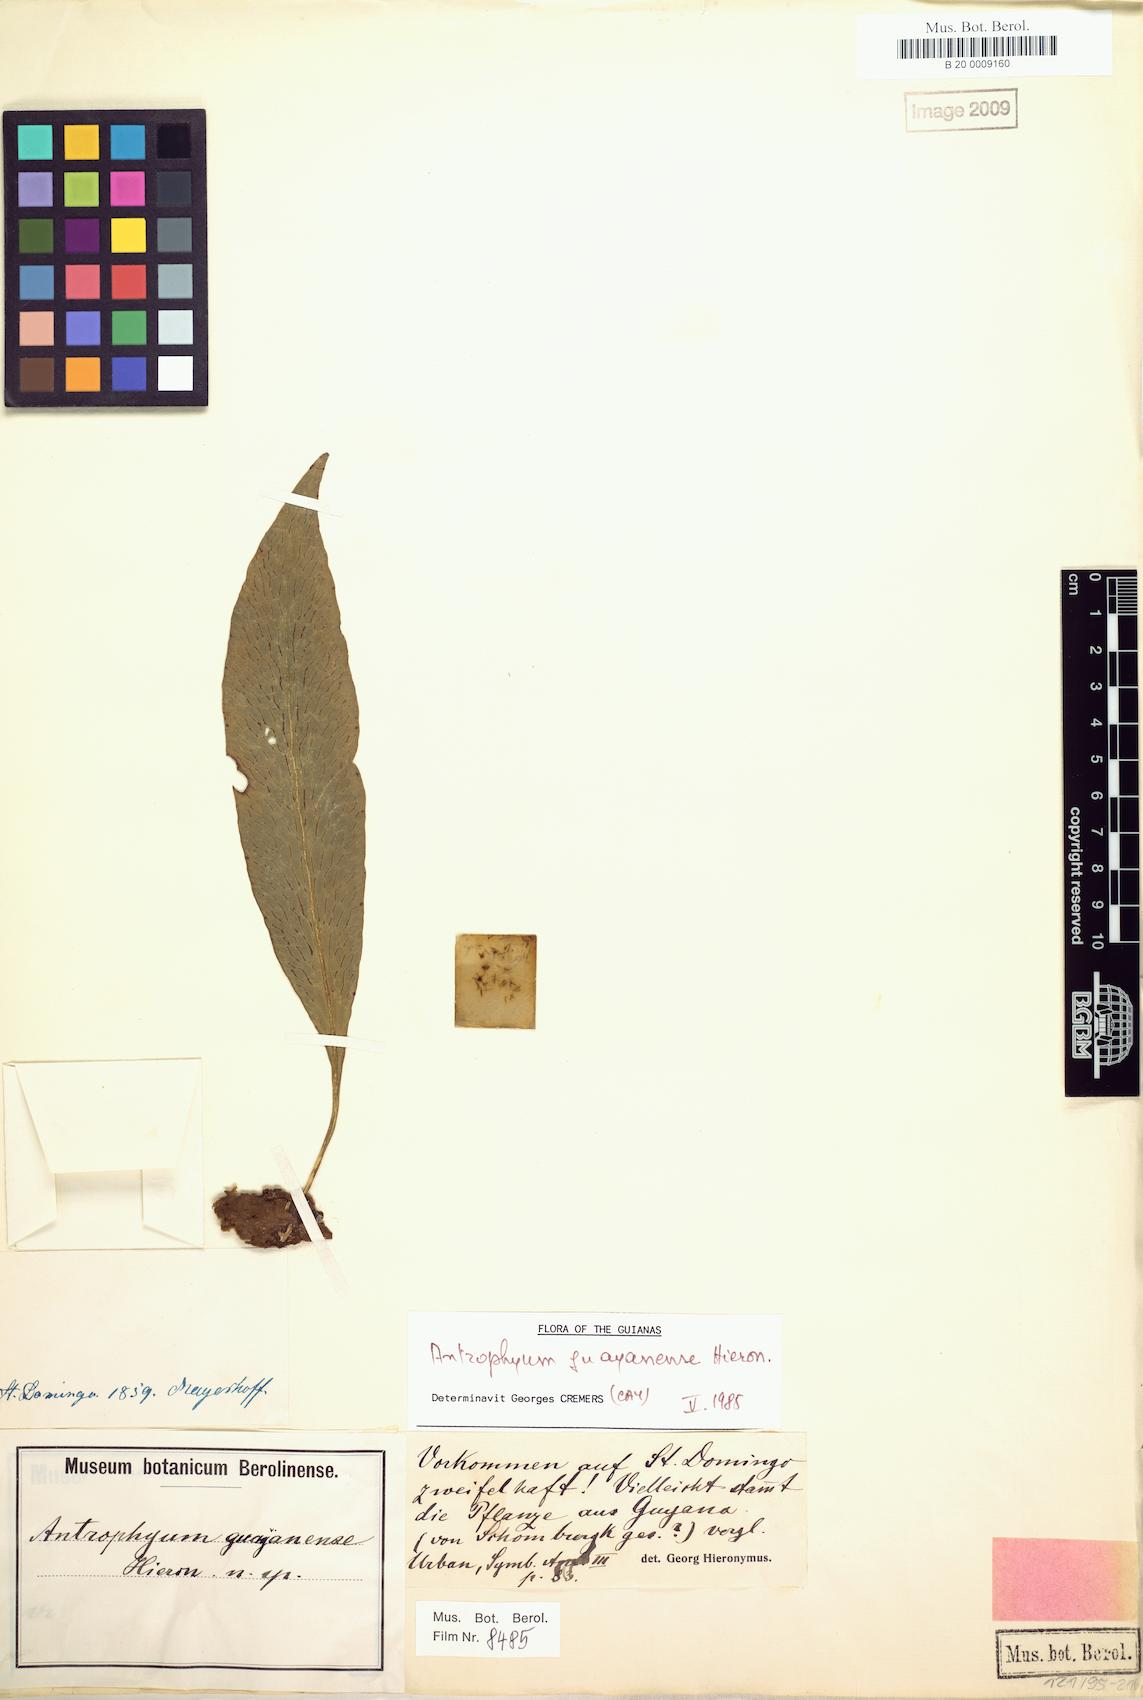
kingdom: Plantae
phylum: Tracheophyta
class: Polypodiopsida
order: Polypodiales
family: Pteridaceae
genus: Polytaenium
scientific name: Polytaenium guayanense
